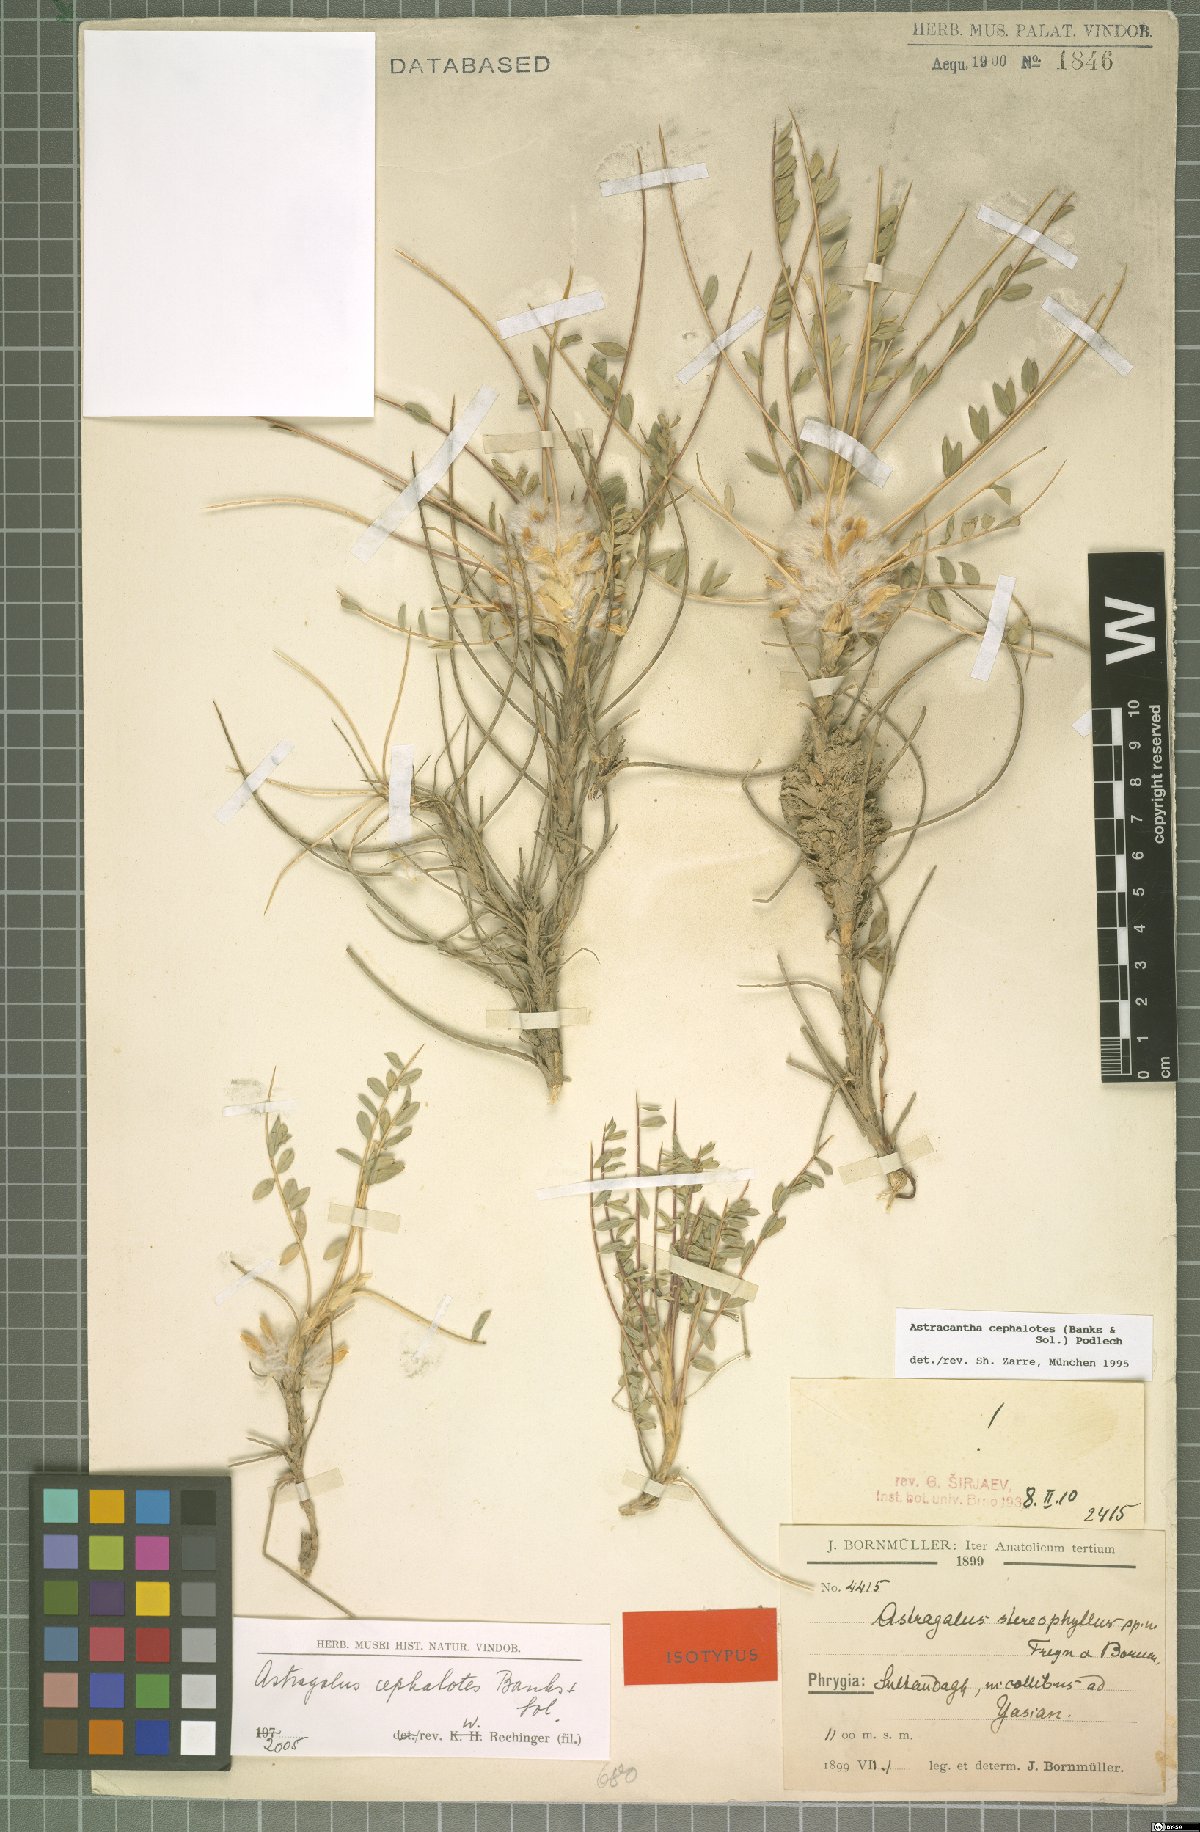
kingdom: Plantae
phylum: Tracheophyta
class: Magnoliopsida
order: Fabales
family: Fabaceae
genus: Astragalus
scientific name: Astragalus cephalotes
